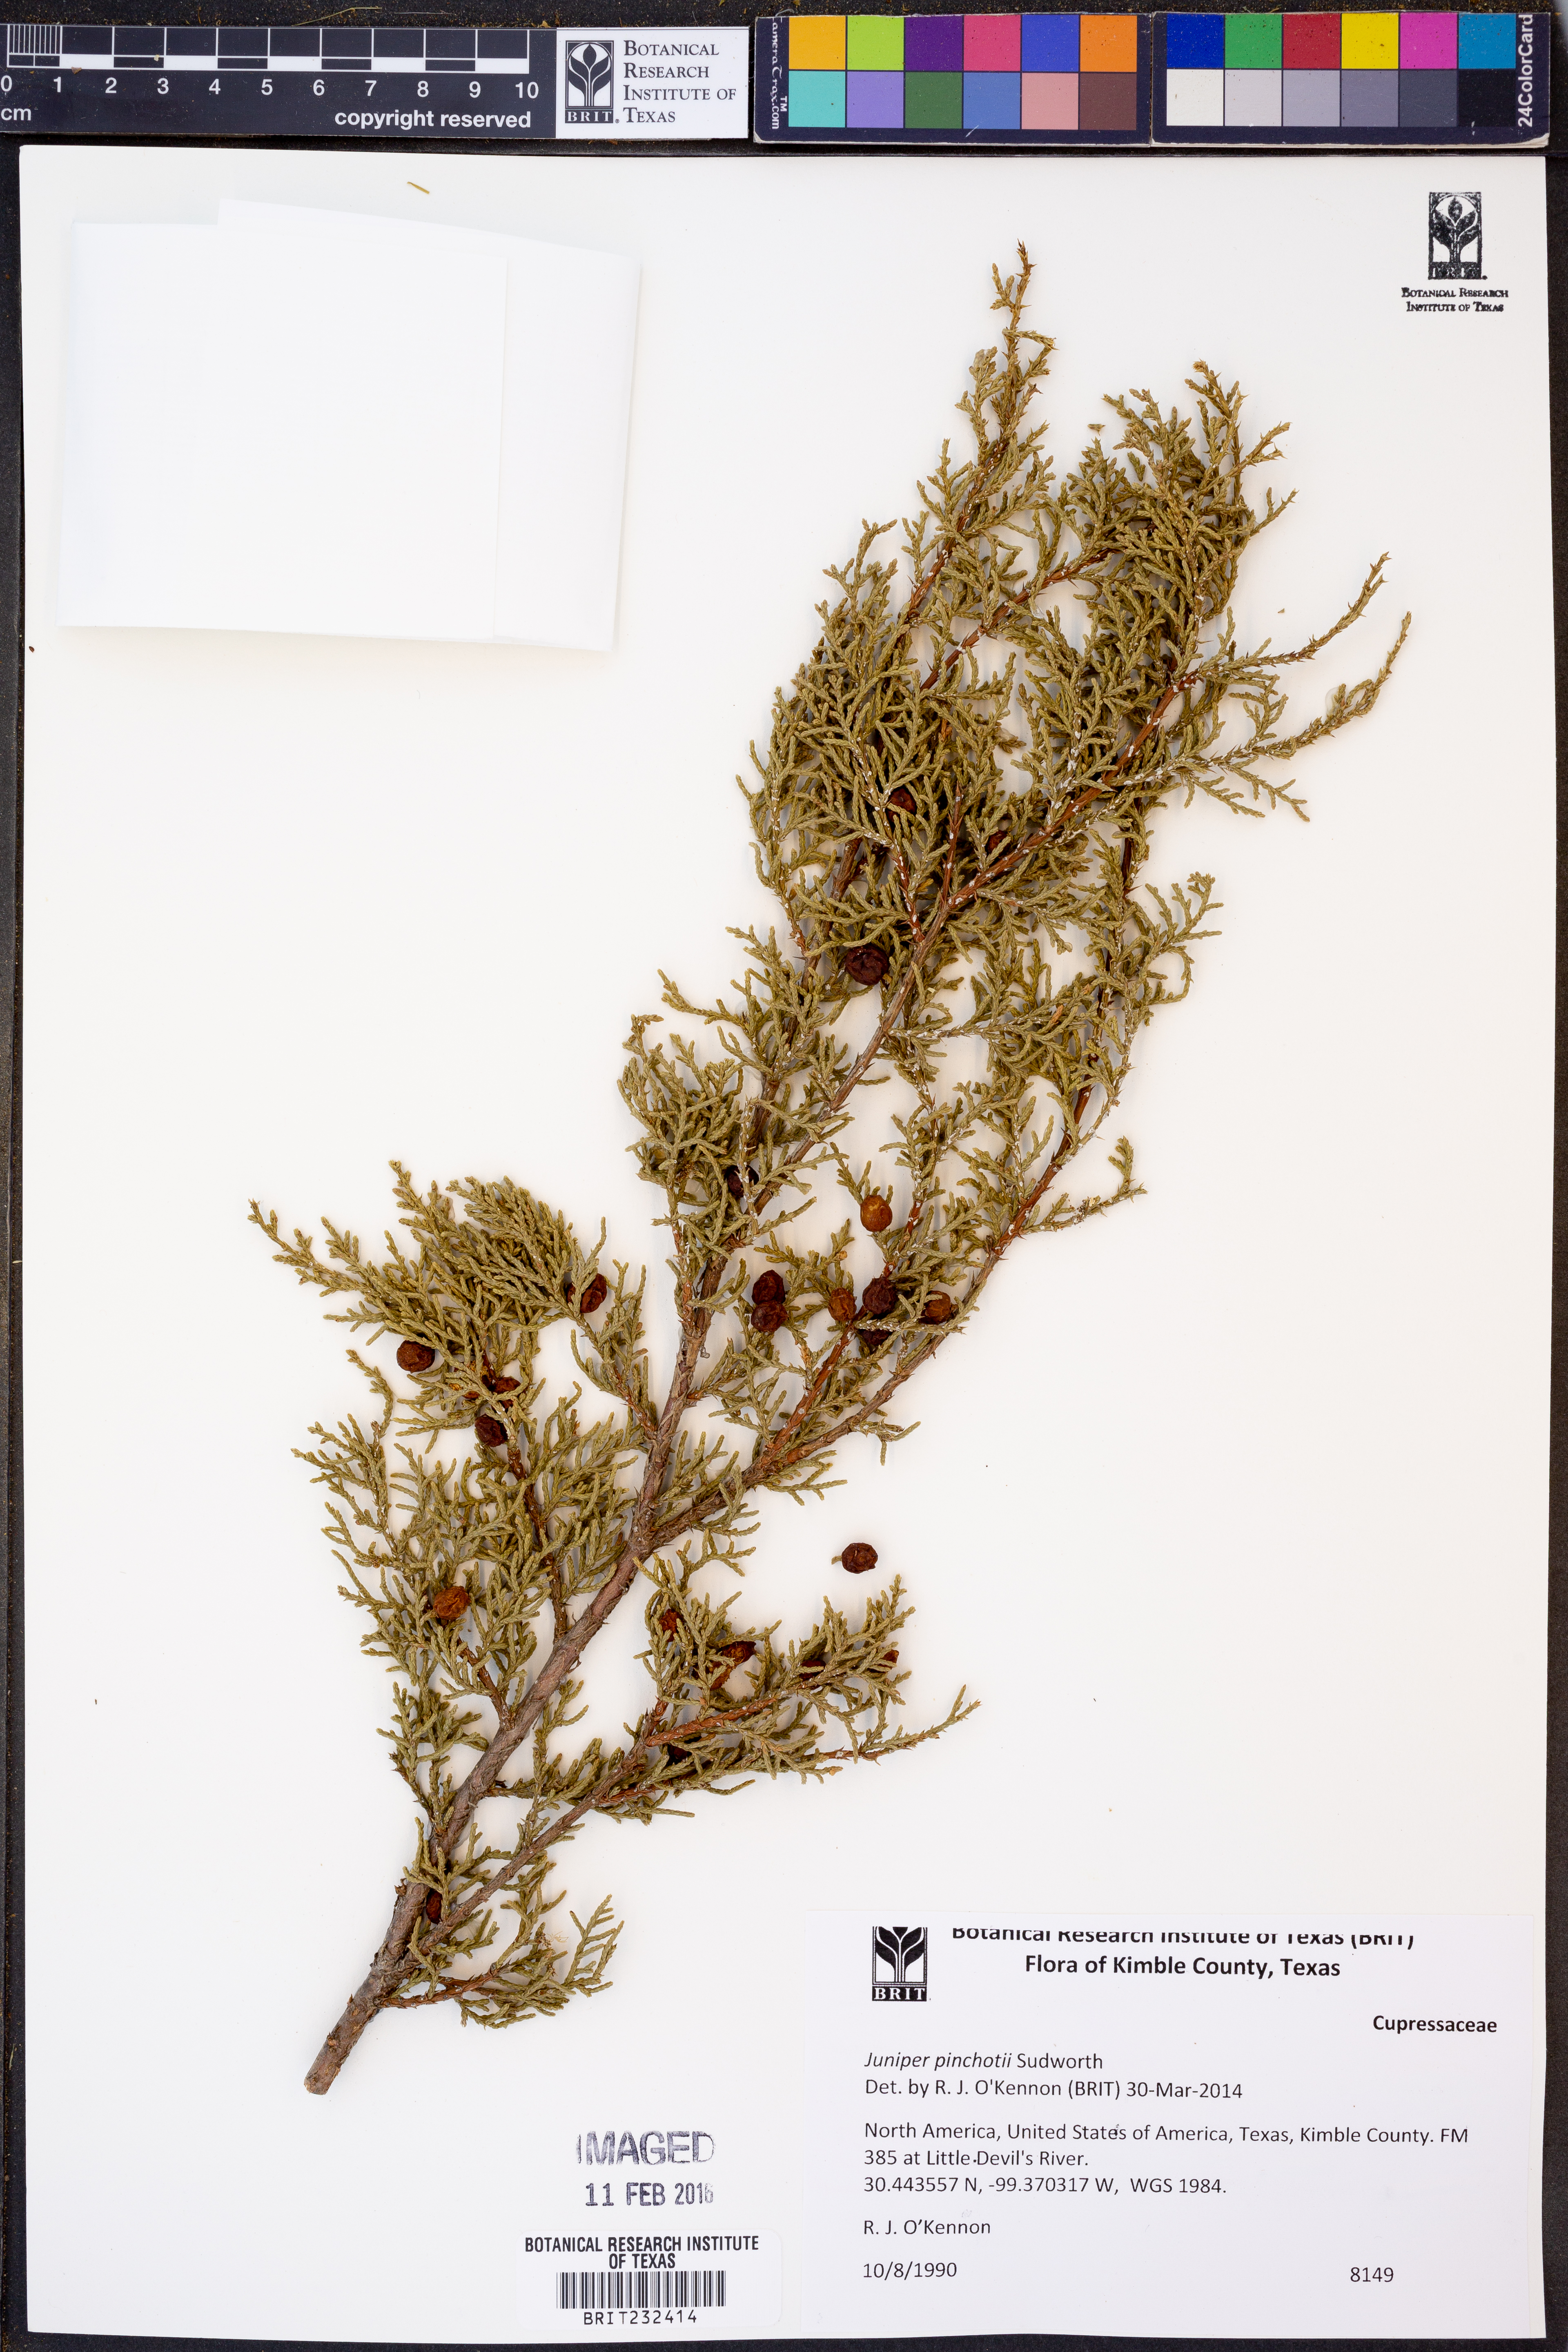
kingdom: Plantae
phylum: Tracheophyta
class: Pinopsida
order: Pinales
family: Cupressaceae
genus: Juniperus
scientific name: Juniperus pinchotii
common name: Pinchot juniper
